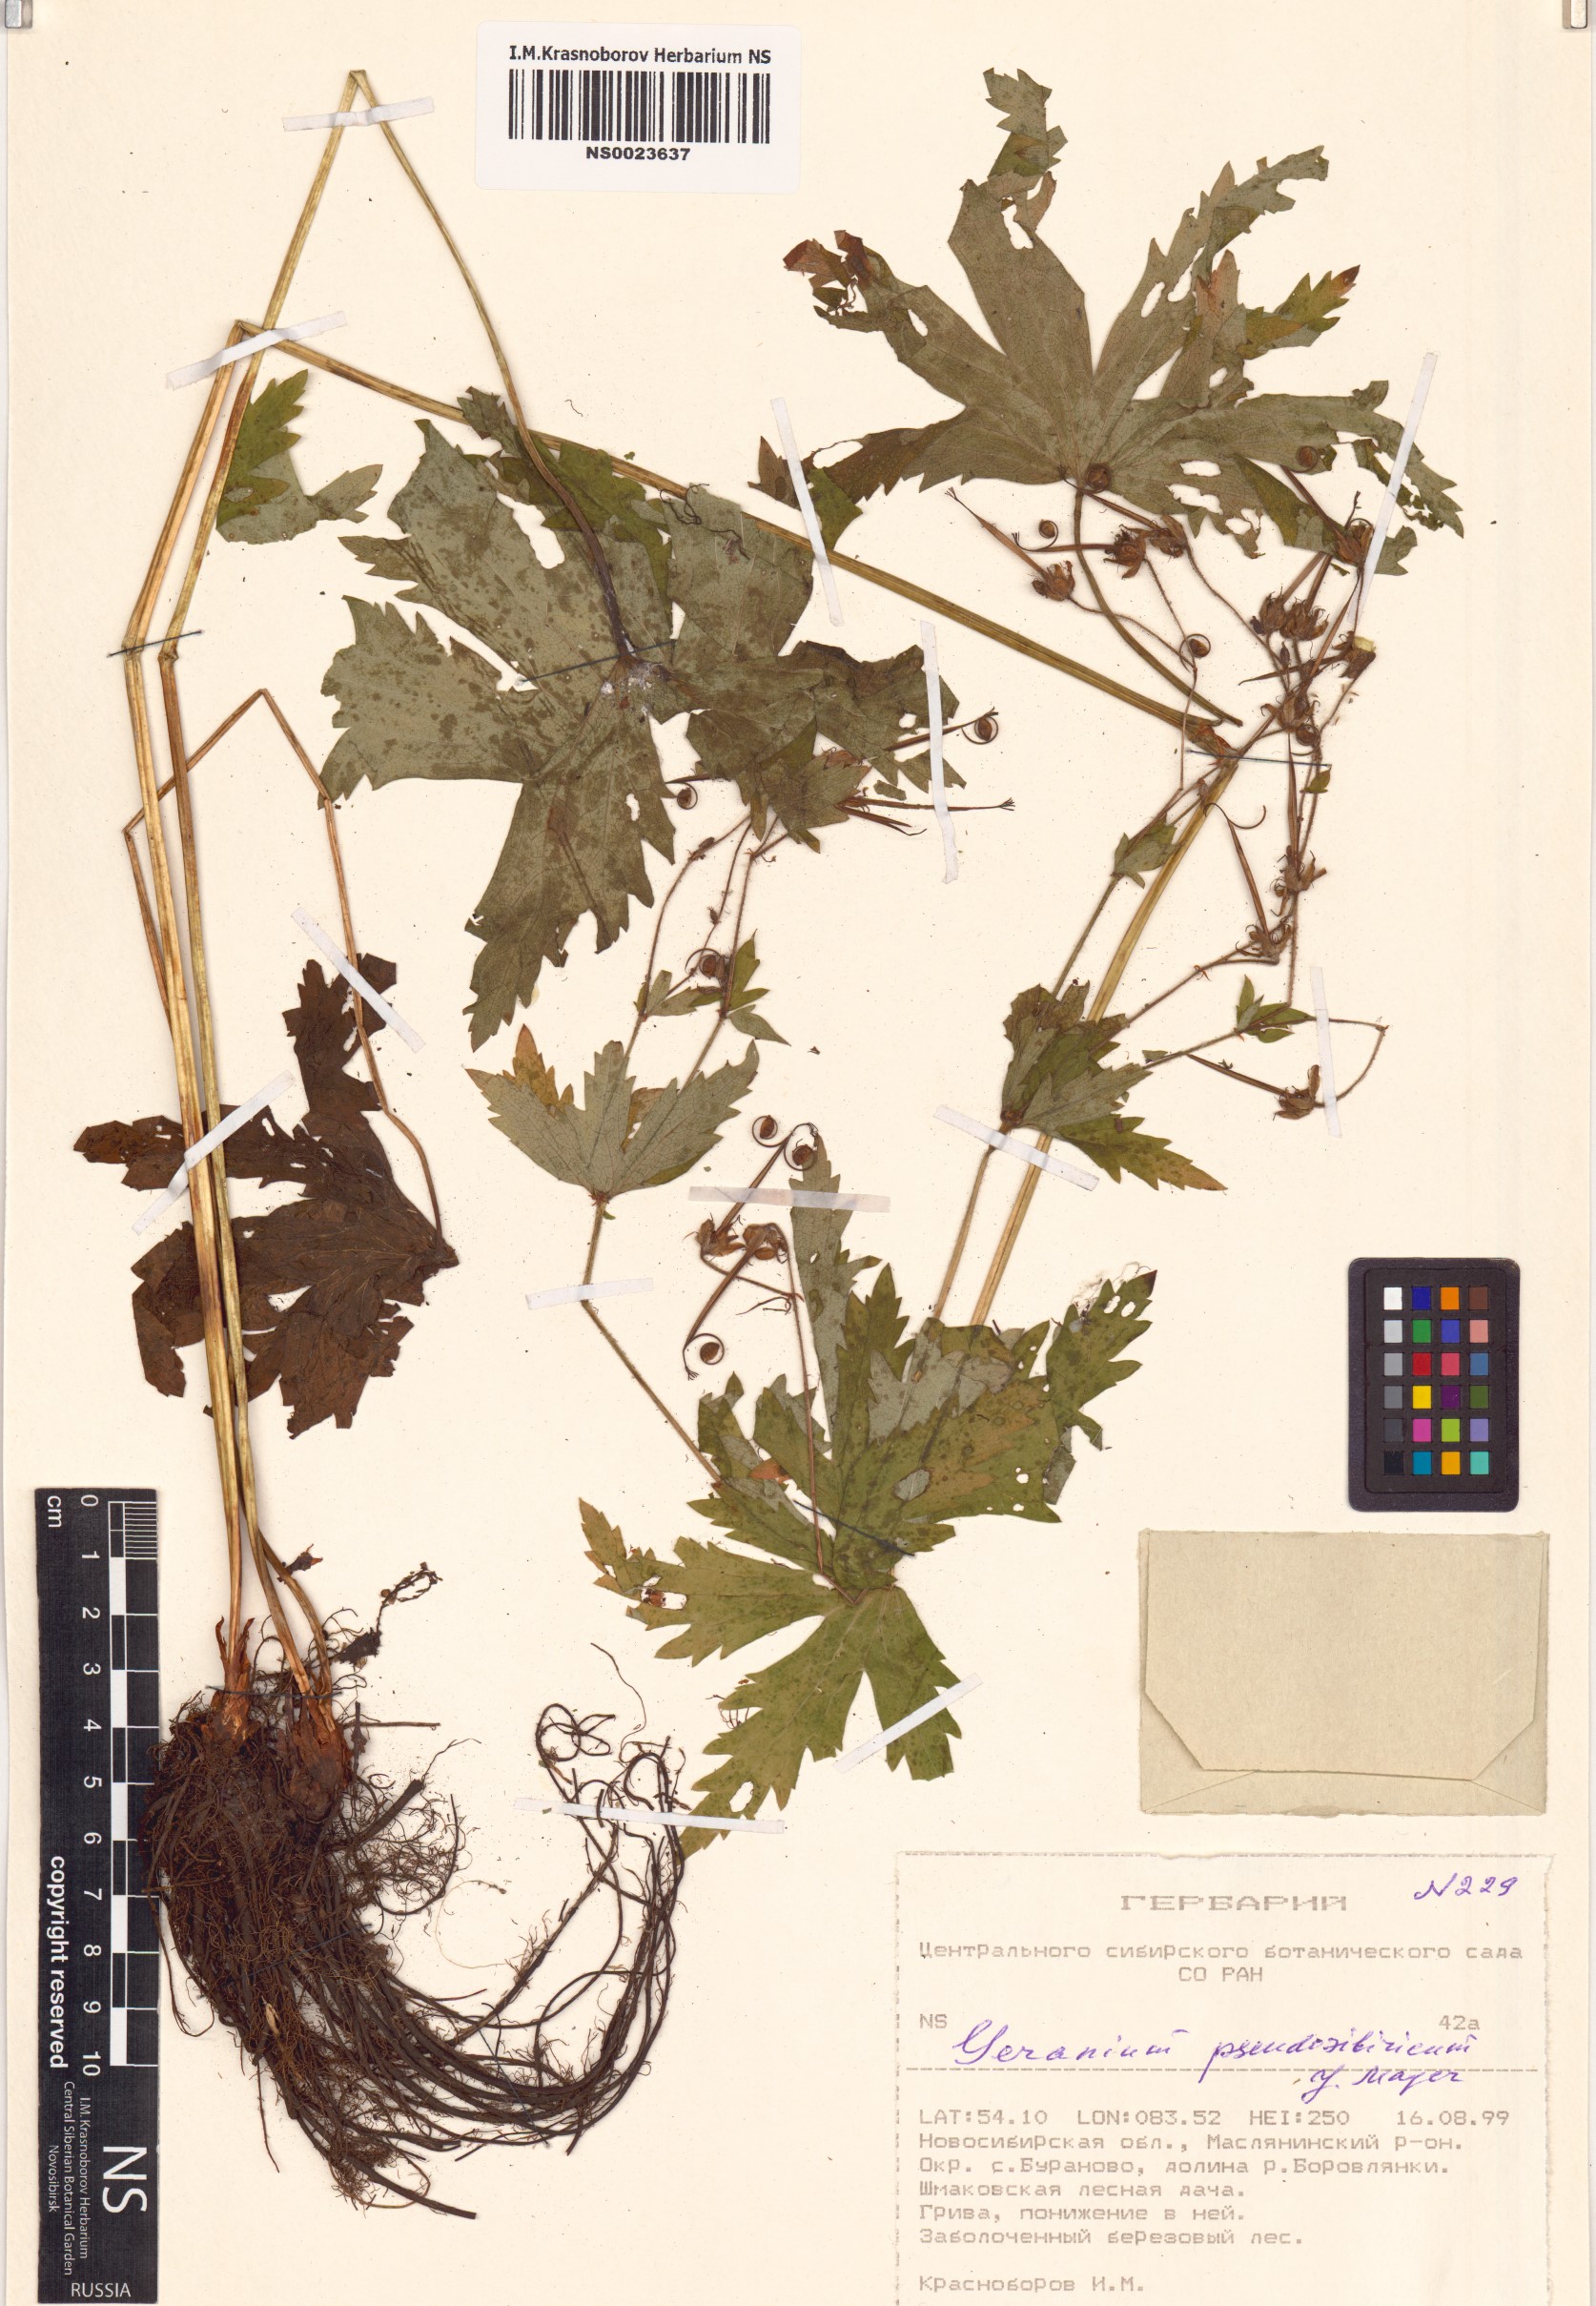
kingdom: Plantae
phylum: Tracheophyta
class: Magnoliopsida
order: Geraniales
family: Geraniaceae
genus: Geranium
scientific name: Geranium pseudosibiricum
